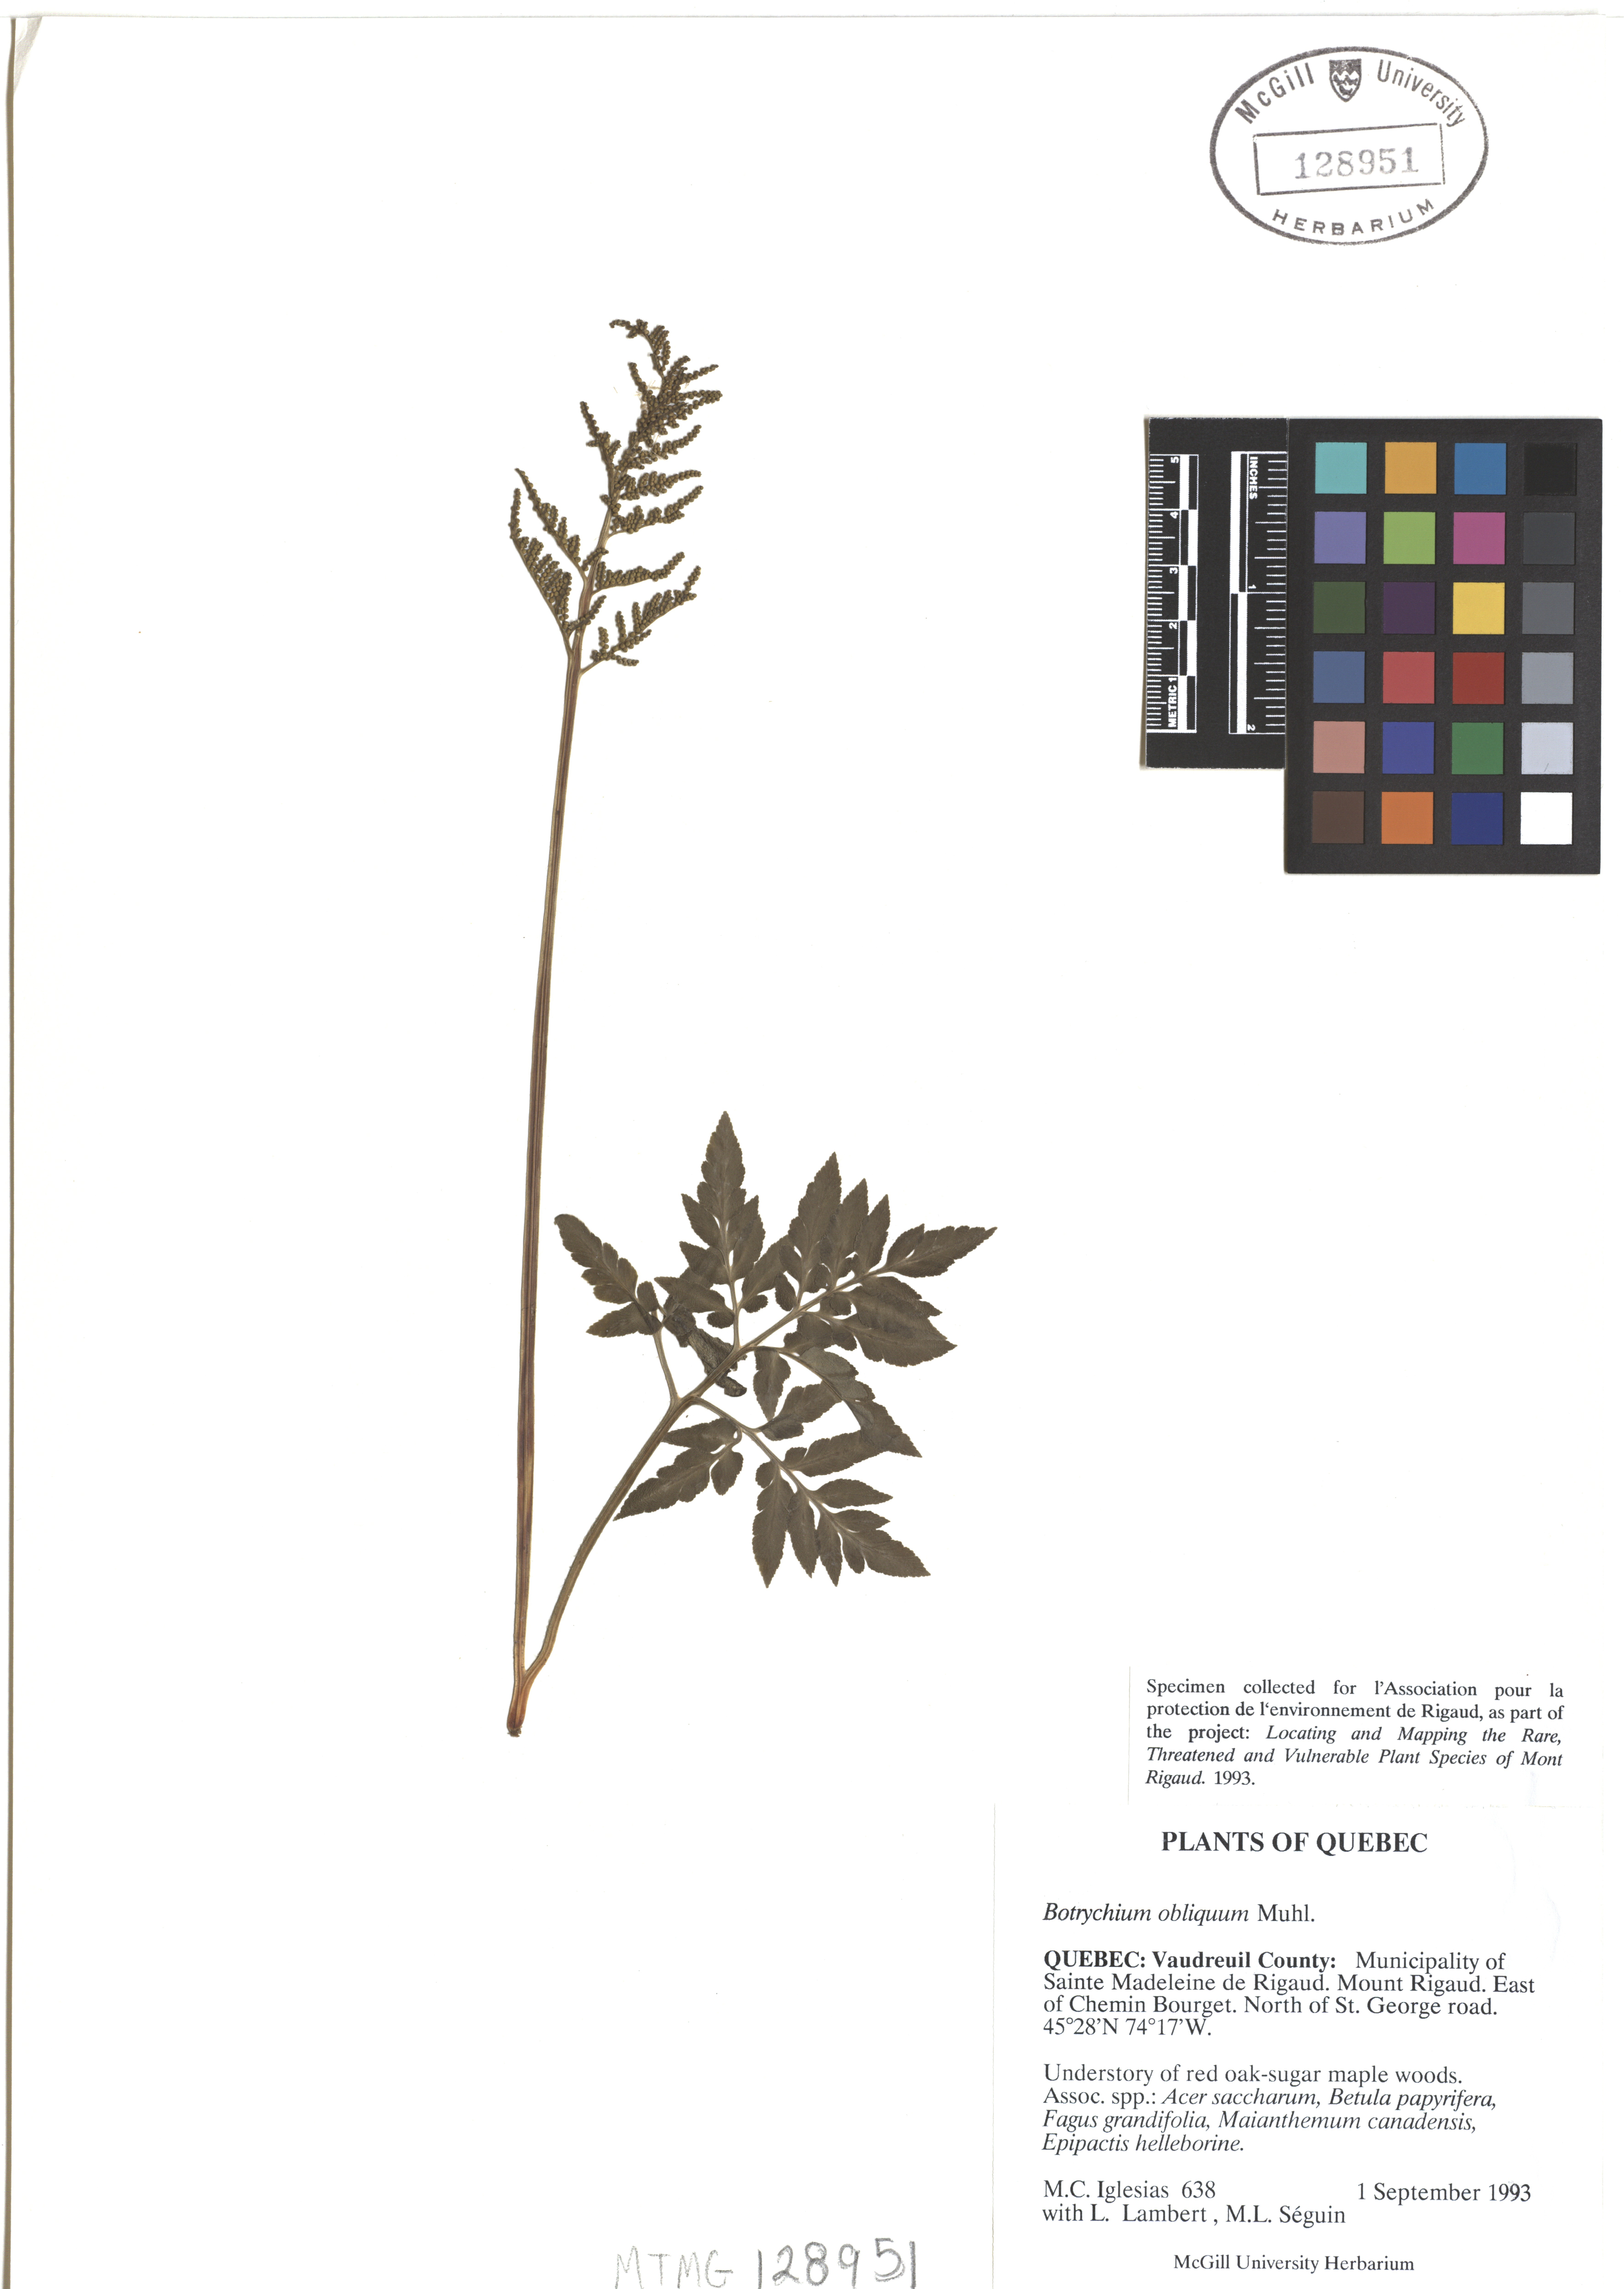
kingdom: Plantae
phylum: Tracheophyta
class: Polypodiopsida
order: Ophioglossales
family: Ophioglossaceae
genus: Sceptridium
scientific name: Sceptridium dissectum
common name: Cut-leaved grapefern
